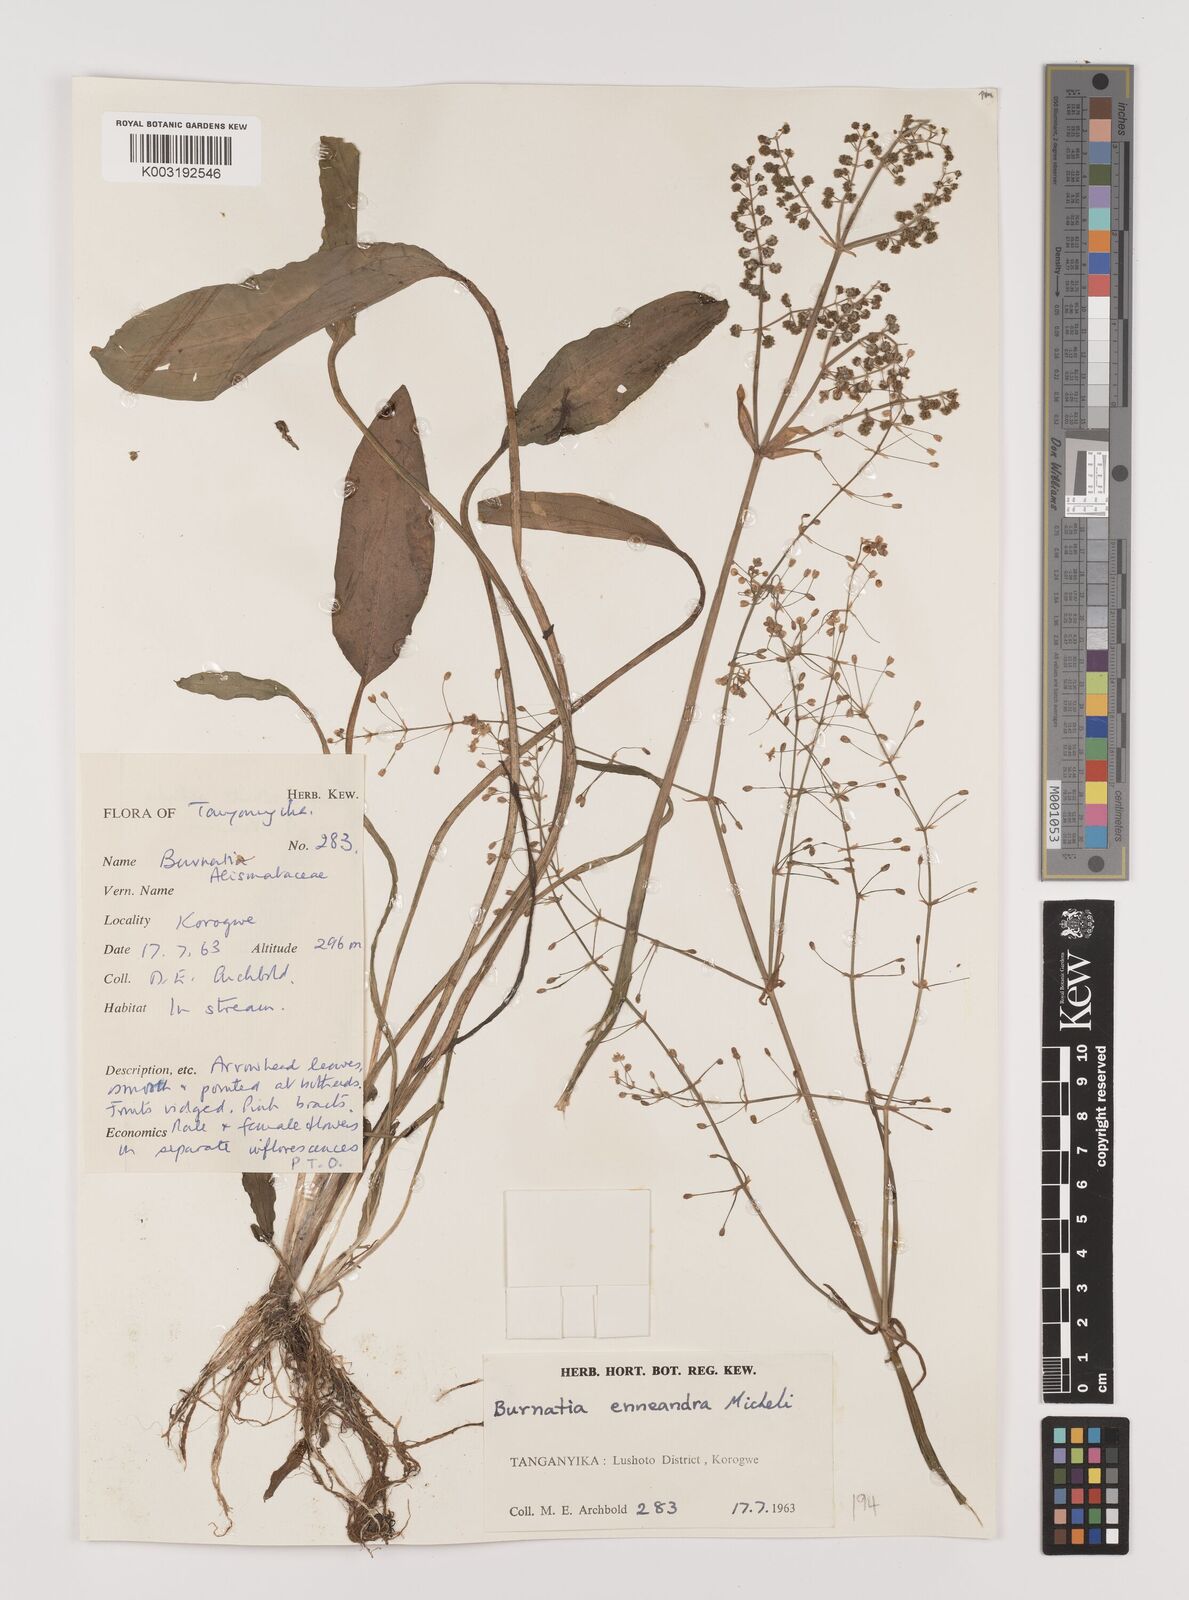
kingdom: Plantae
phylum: Tracheophyta
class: Liliopsida
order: Alismatales
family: Alismataceae
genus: Burnatia
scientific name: Burnatia enneandra
